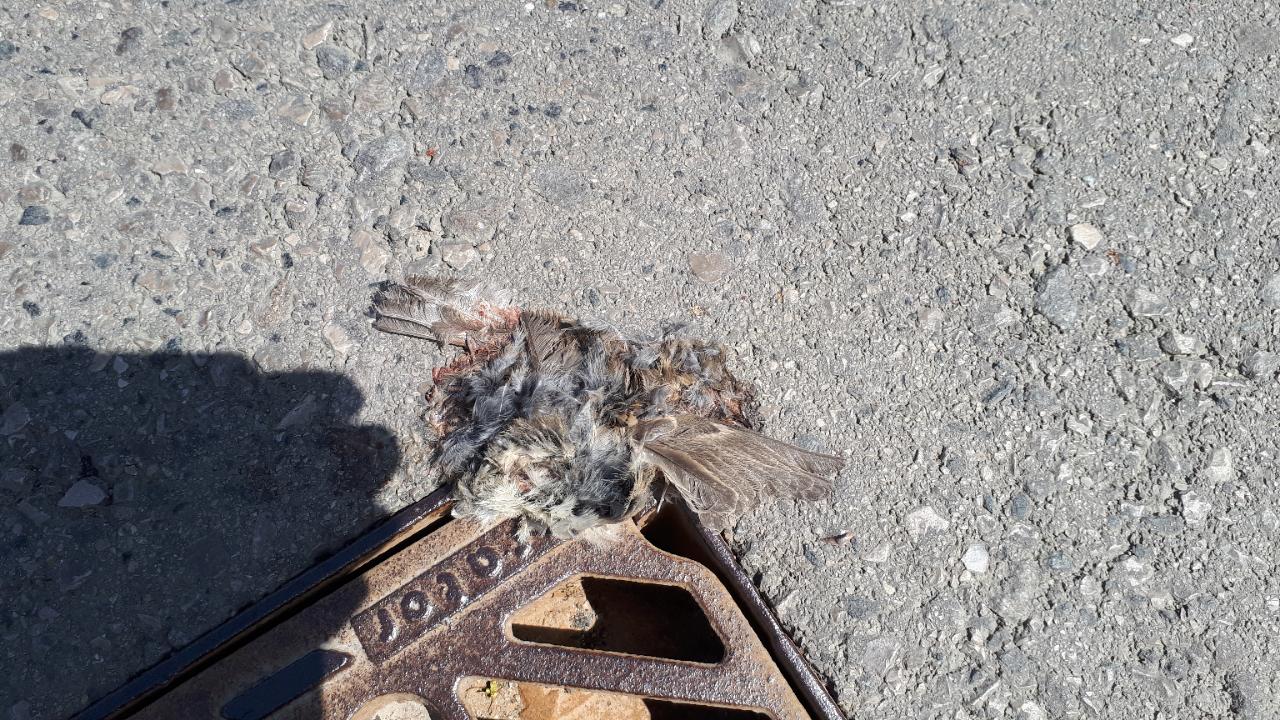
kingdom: Animalia
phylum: Chordata
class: Aves
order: Passeriformes
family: Passeridae
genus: Passer
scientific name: Passer
